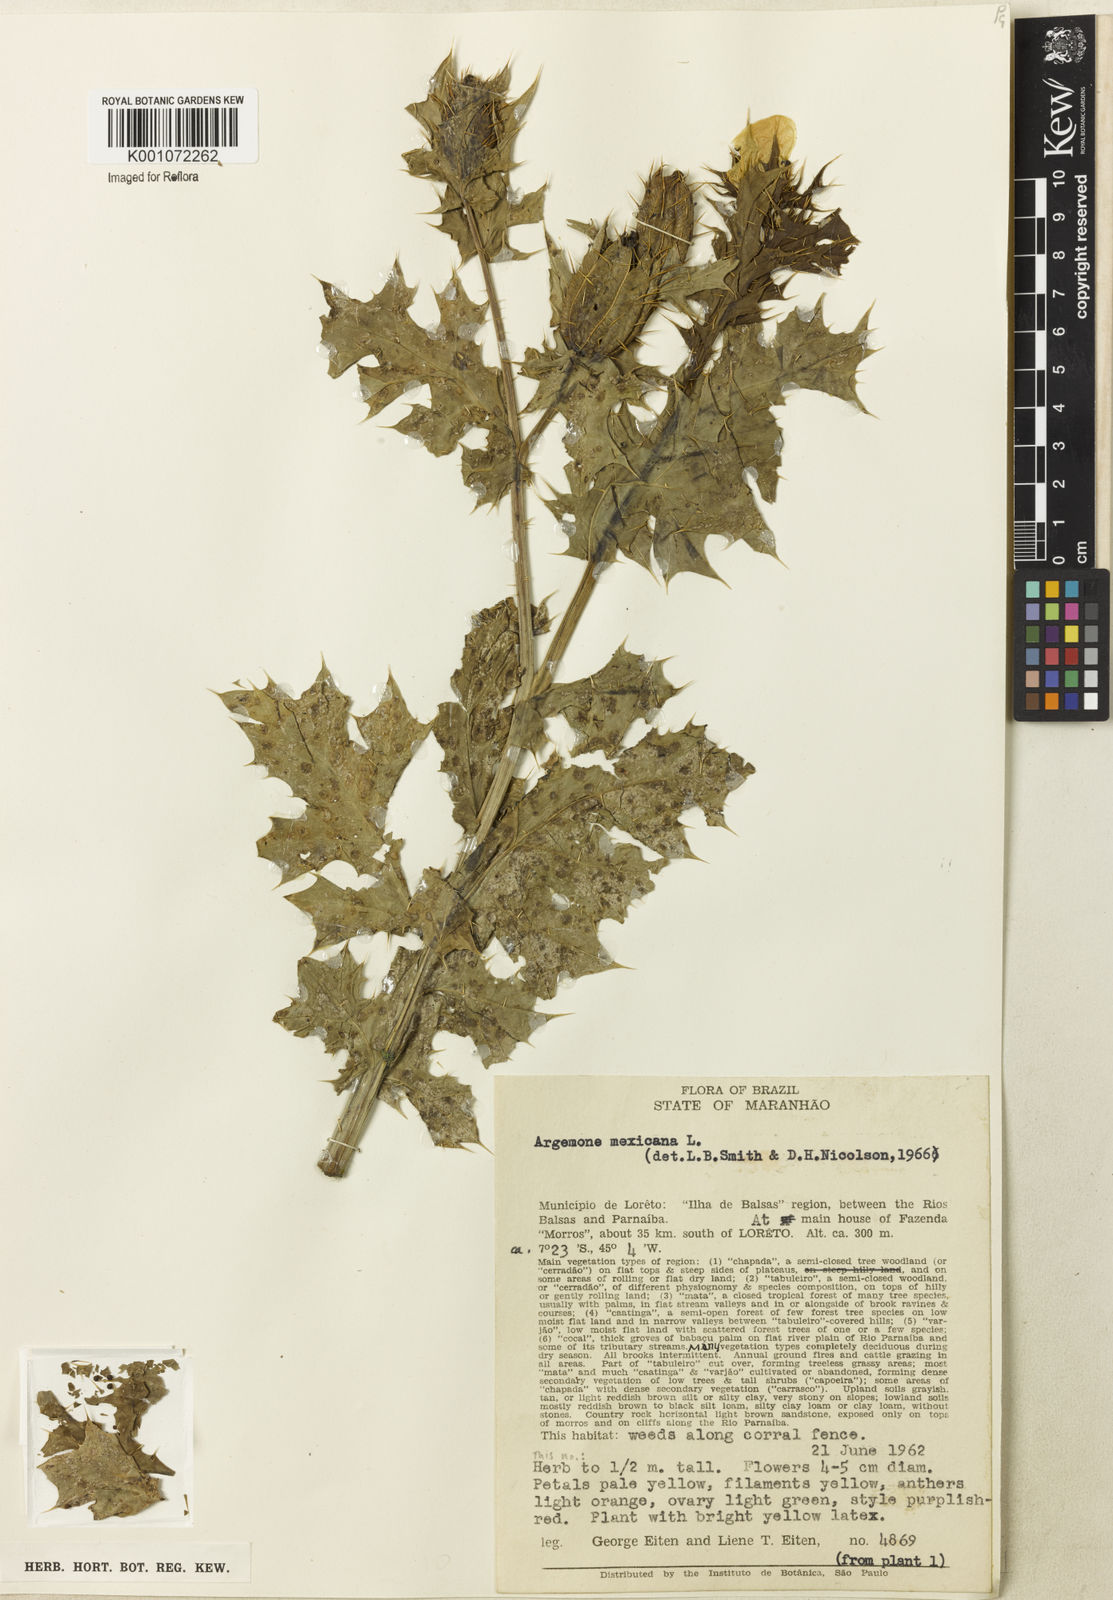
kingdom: Plantae
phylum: Tracheophyta
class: Magnoliopsida
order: Ranunculales
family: Papaveraceae
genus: Argemone
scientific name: Argemone mexicana
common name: Mexican poppy
